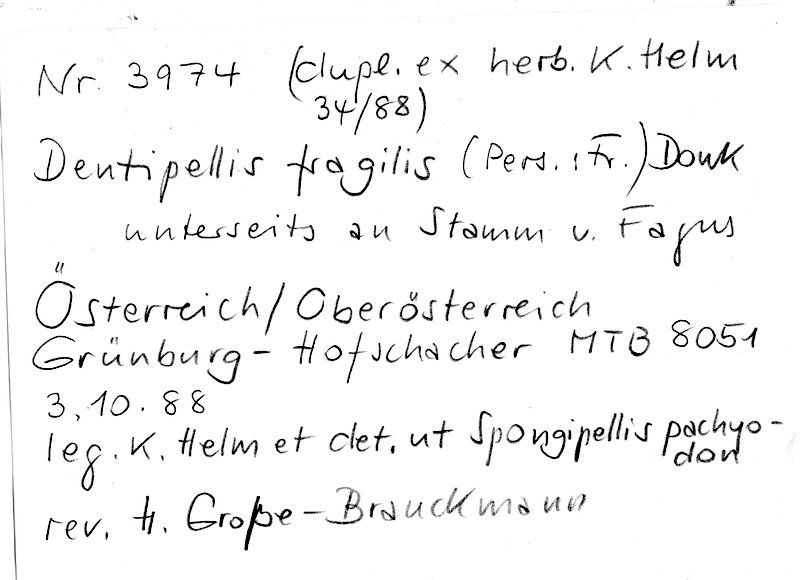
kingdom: Plantae
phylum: Tracheophyta
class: Magnoliopsida
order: Fagales
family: Fagaceae
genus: Fagus
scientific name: Fagus sylvatica
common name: Beech
